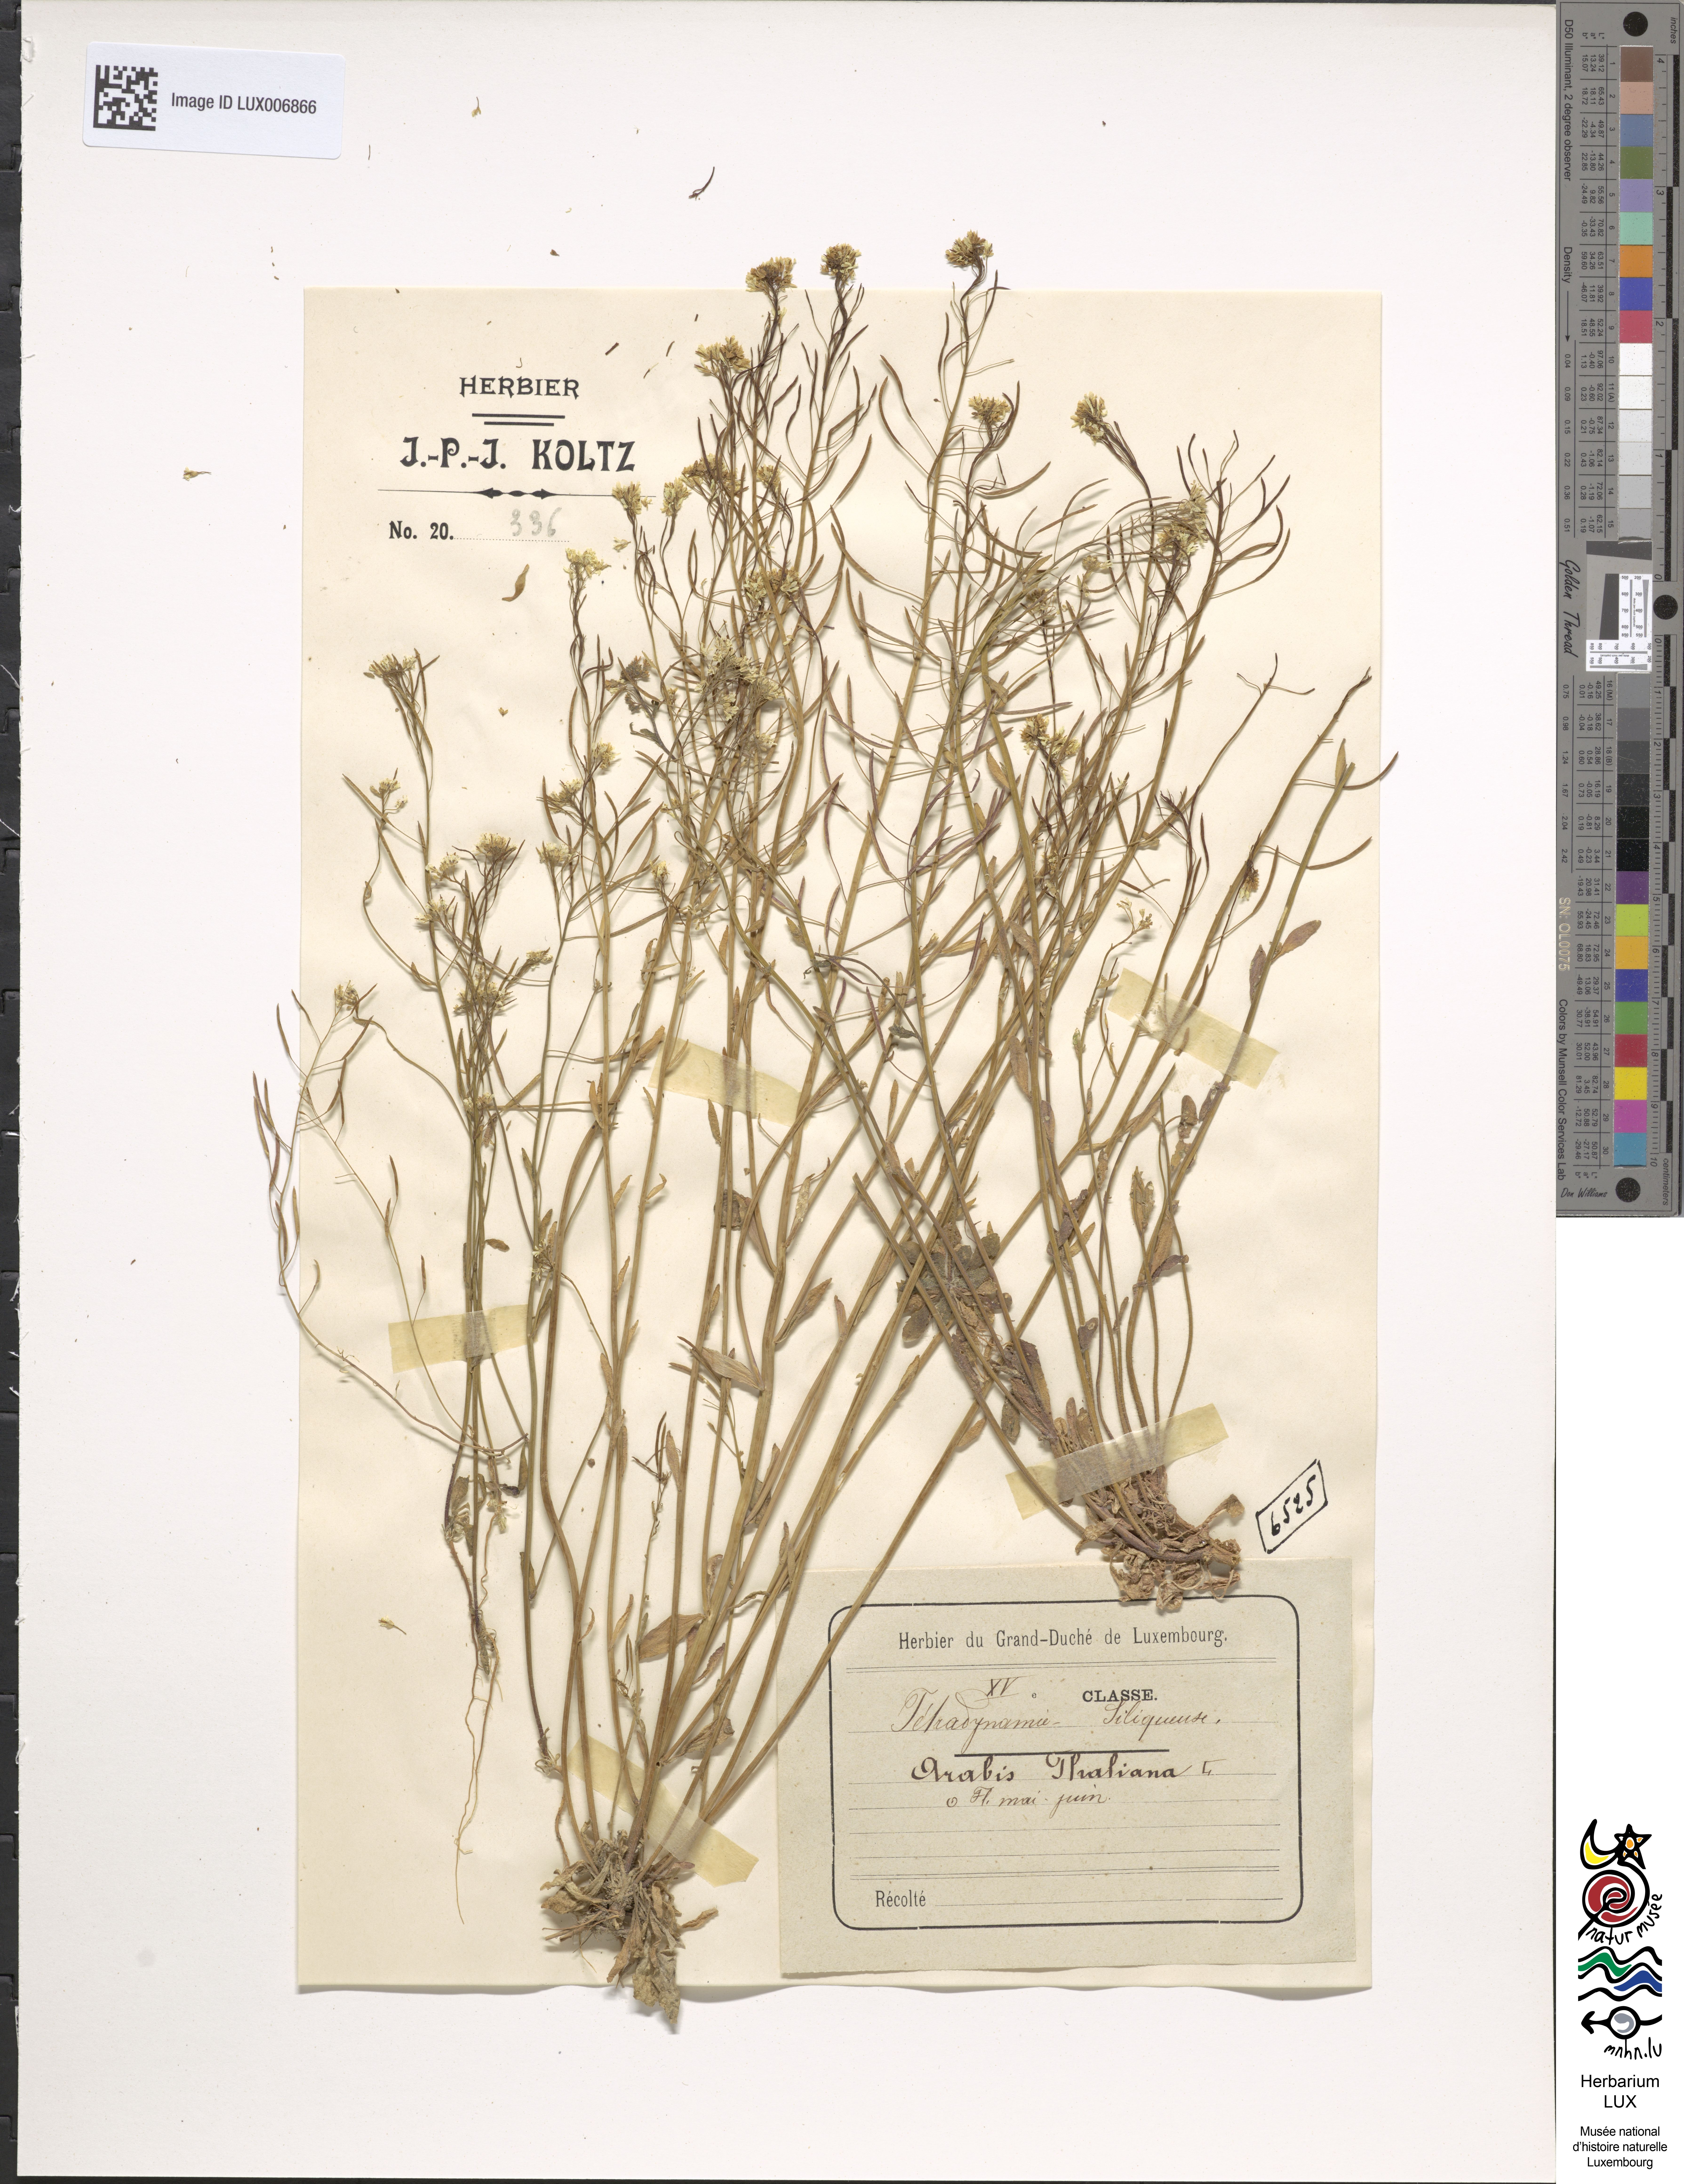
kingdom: Plantae
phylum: Tracheophyta
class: Magnoliopsida
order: Brassicales
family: Brassicaceae
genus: Arabidopsis
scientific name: Arabidopsis thaliana
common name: Thale cress
